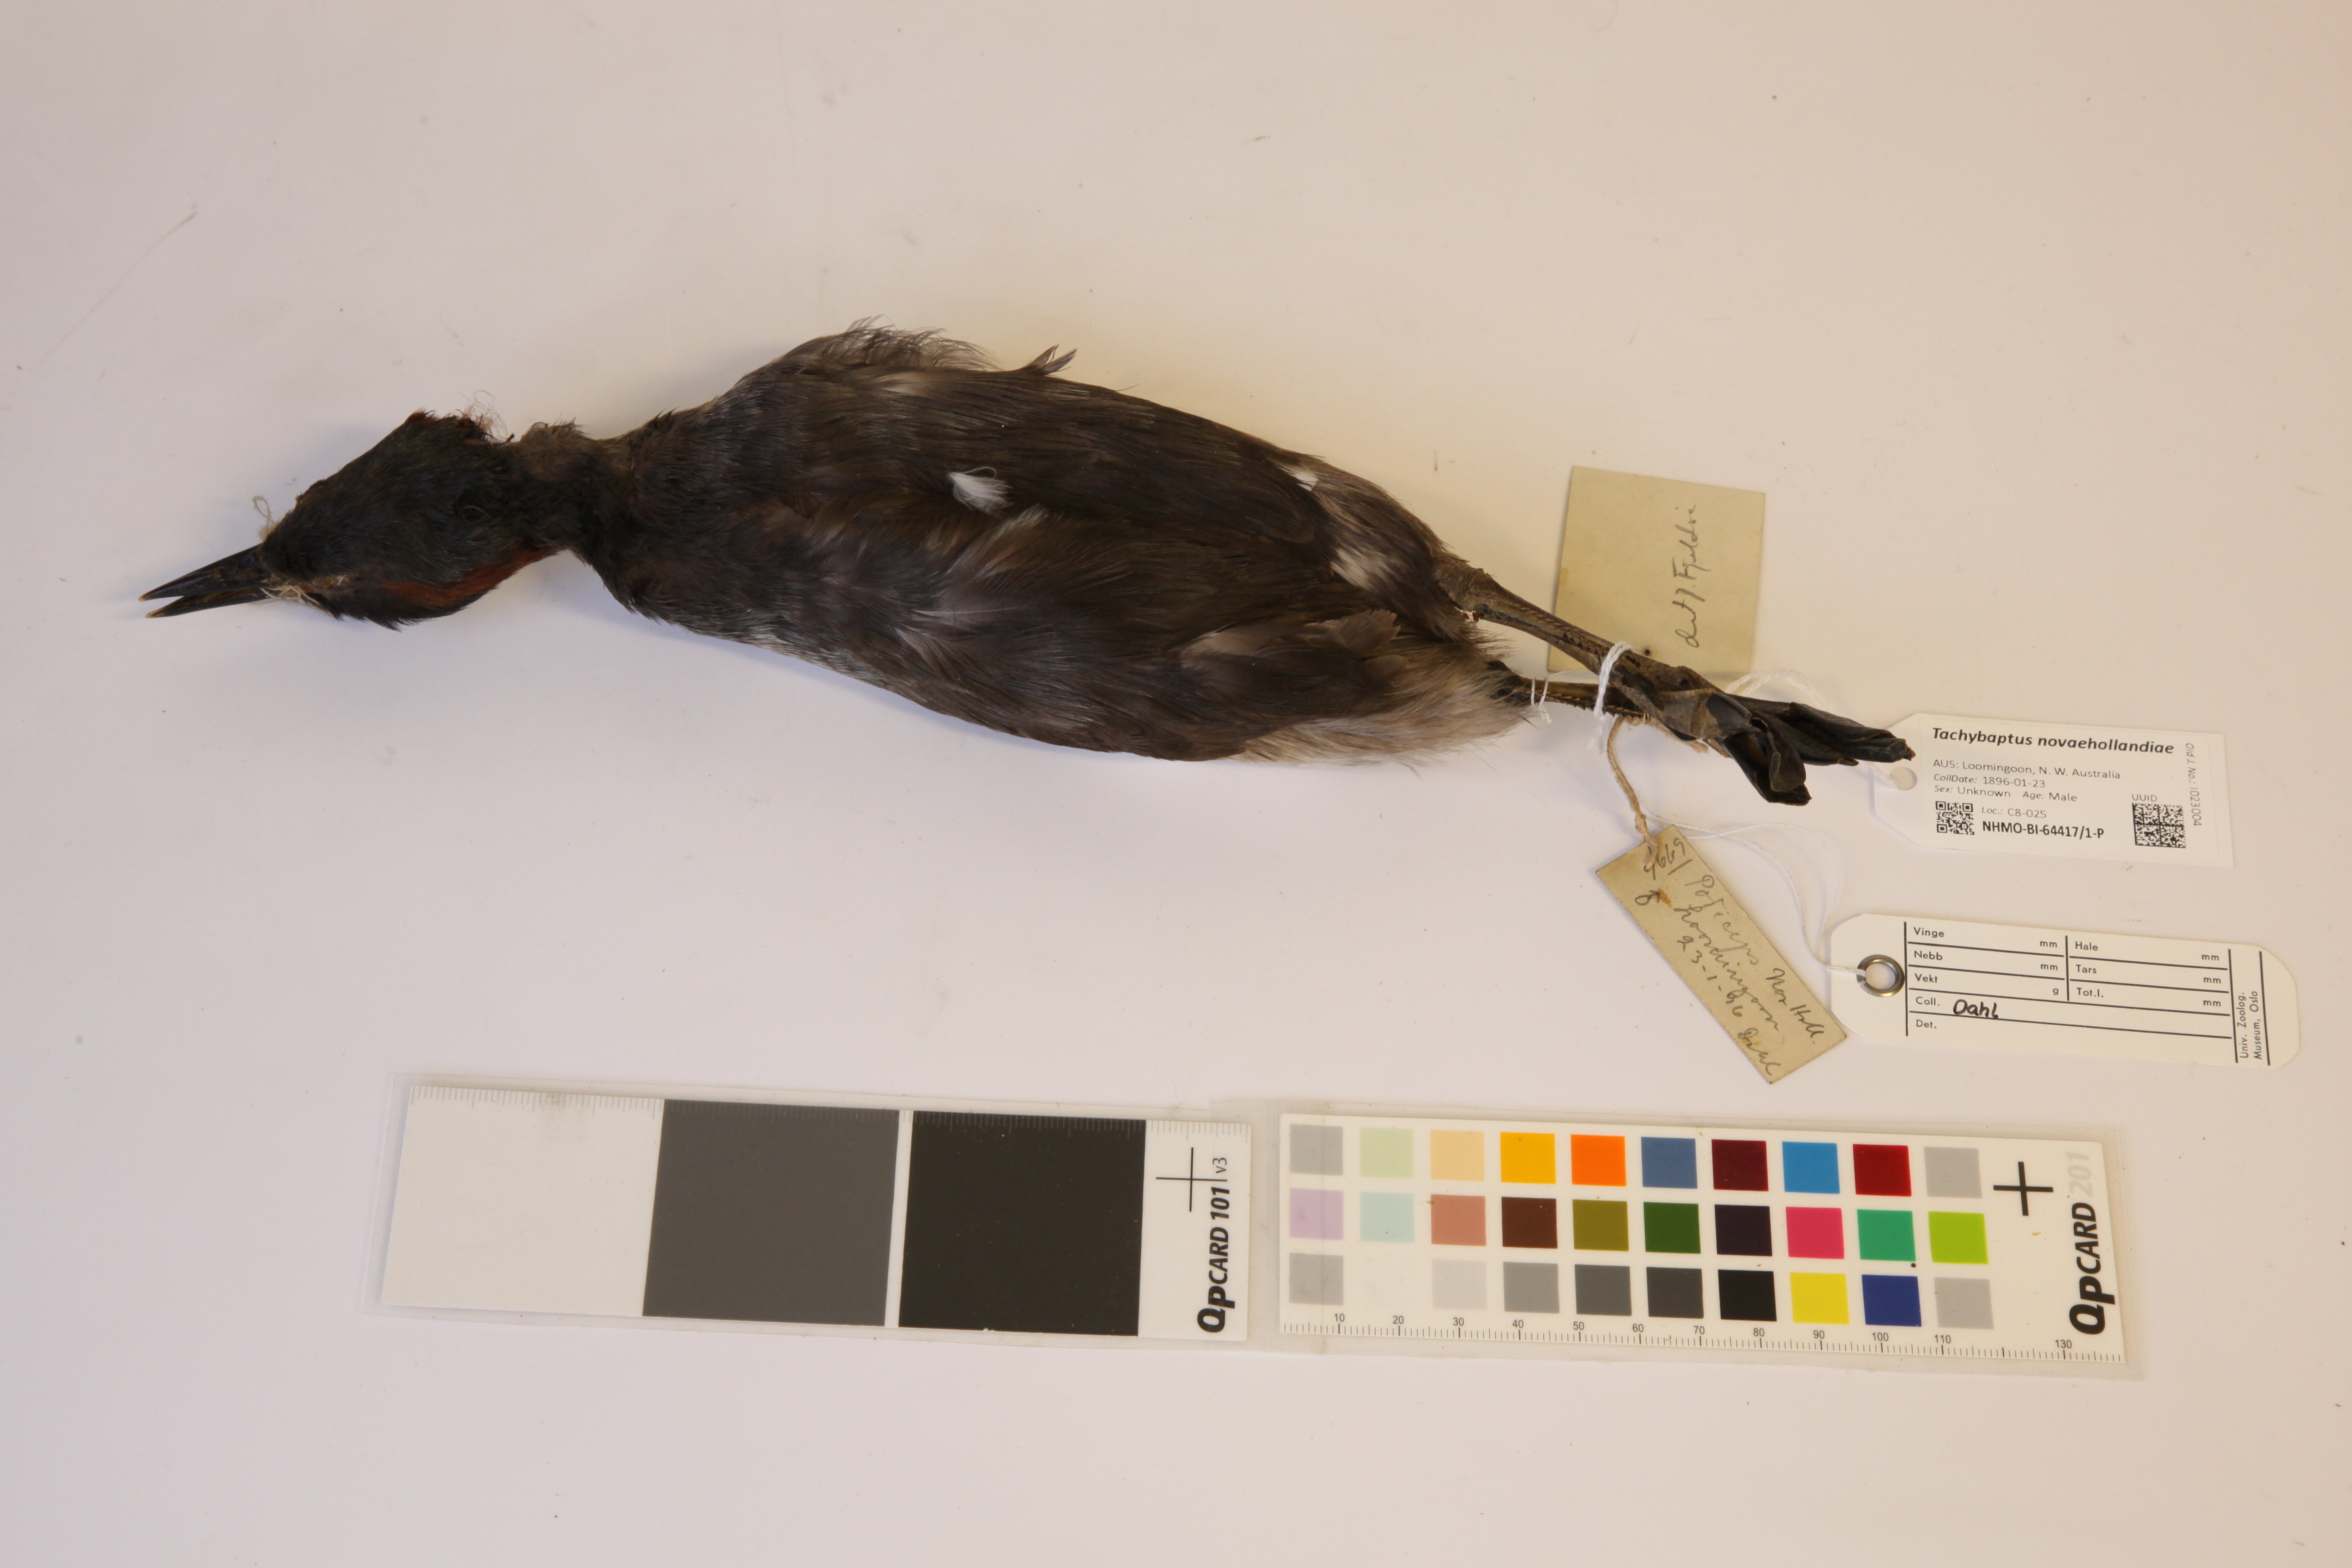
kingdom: Animalia
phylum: Chordata
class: Aves
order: Podicipediformes
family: Podicipedidae
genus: Tachybaptus
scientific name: Tachybaptus novaehollandiae
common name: Australasian grebe
